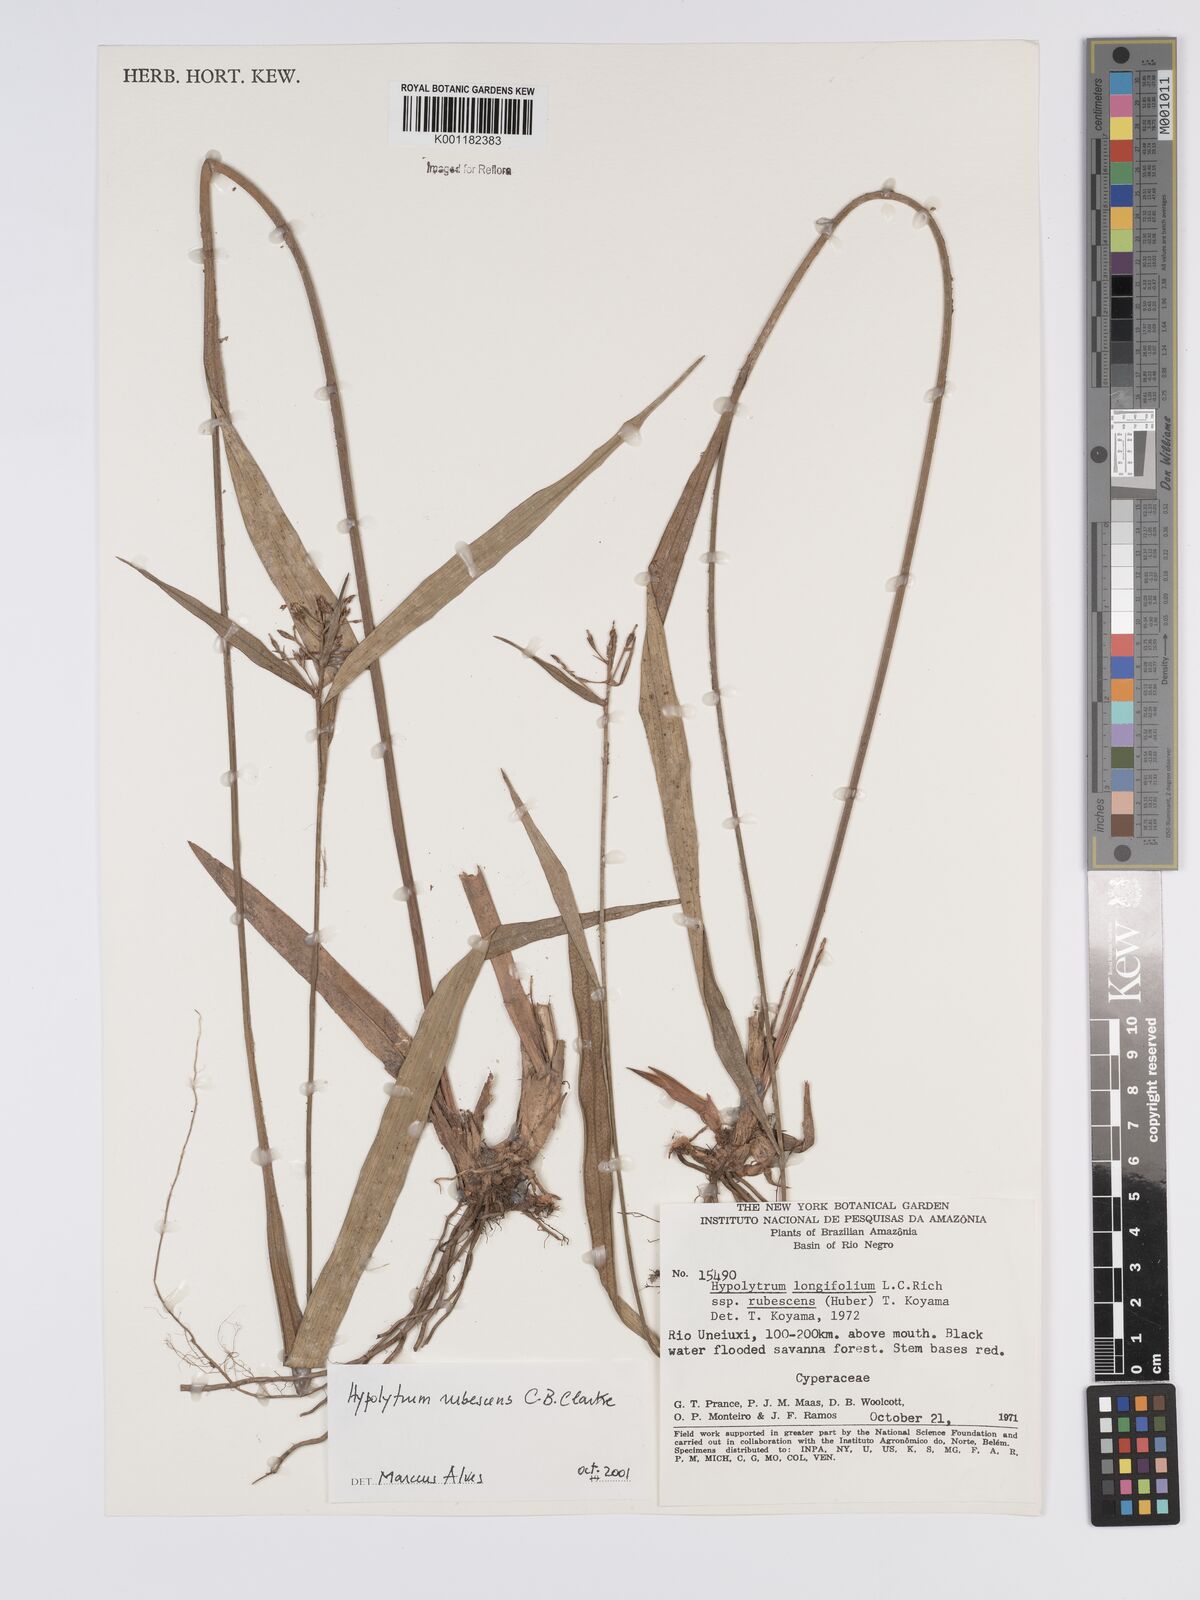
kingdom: Plantae
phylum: Tracheophyta
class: Liliopsida
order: Poales
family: Cyperaceae
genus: Hypolytrum
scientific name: Hypolytrum longifolium
